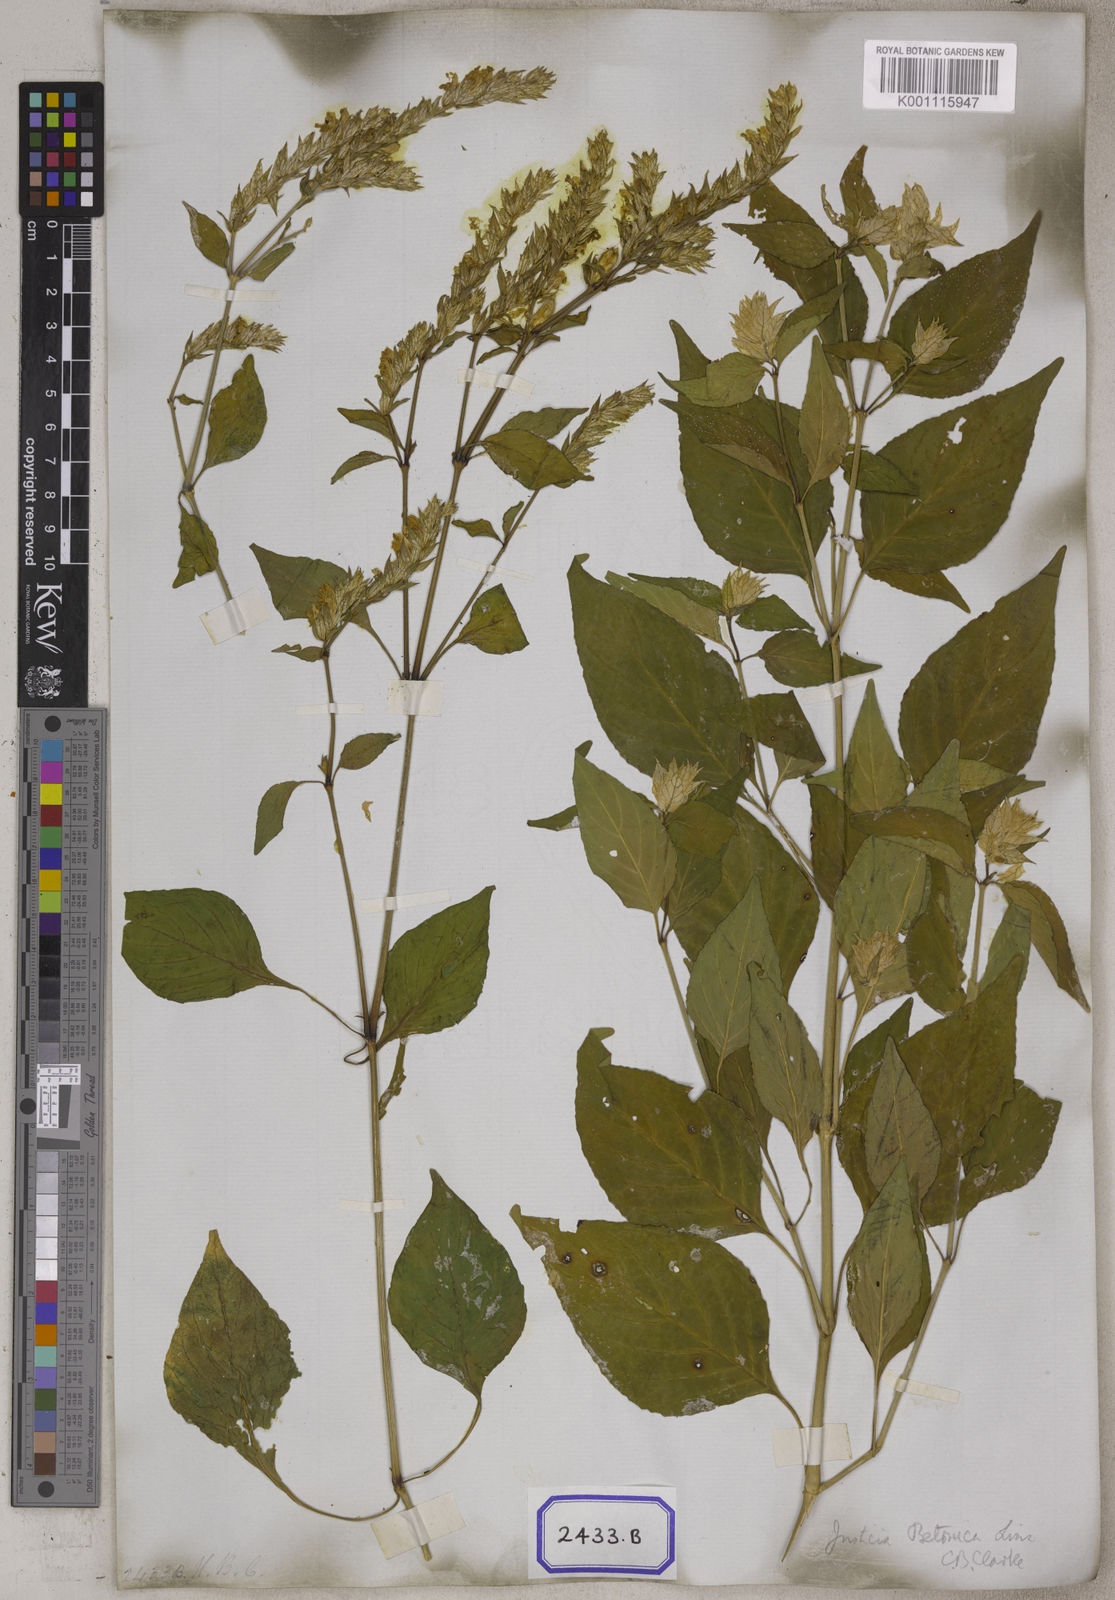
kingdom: Plantae
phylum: Tracheophyta
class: Magnoliopsida
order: Lamiales
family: Acanthaceae
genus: Nicoteba
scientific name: Nicoteba betonica
